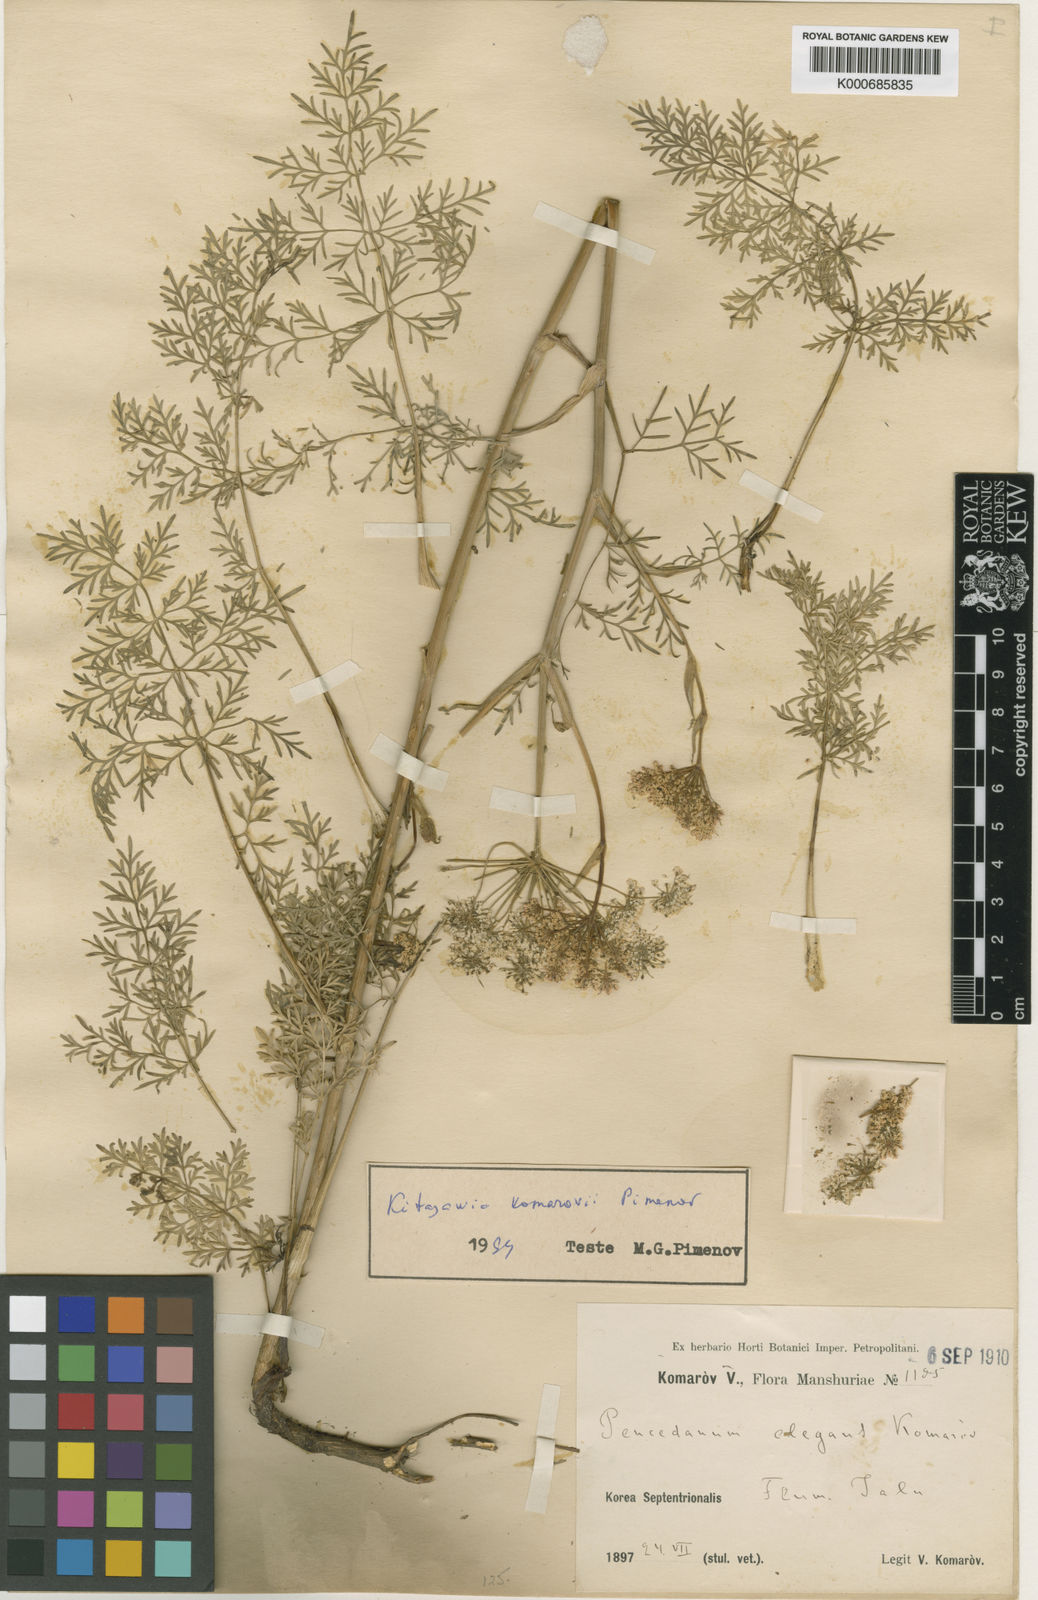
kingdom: Plantae
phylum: Tracheophyta
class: Magnoliopsida
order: Apiales
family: Apiaceae
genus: Kitagawia
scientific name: Kitagawia terebinthacea
